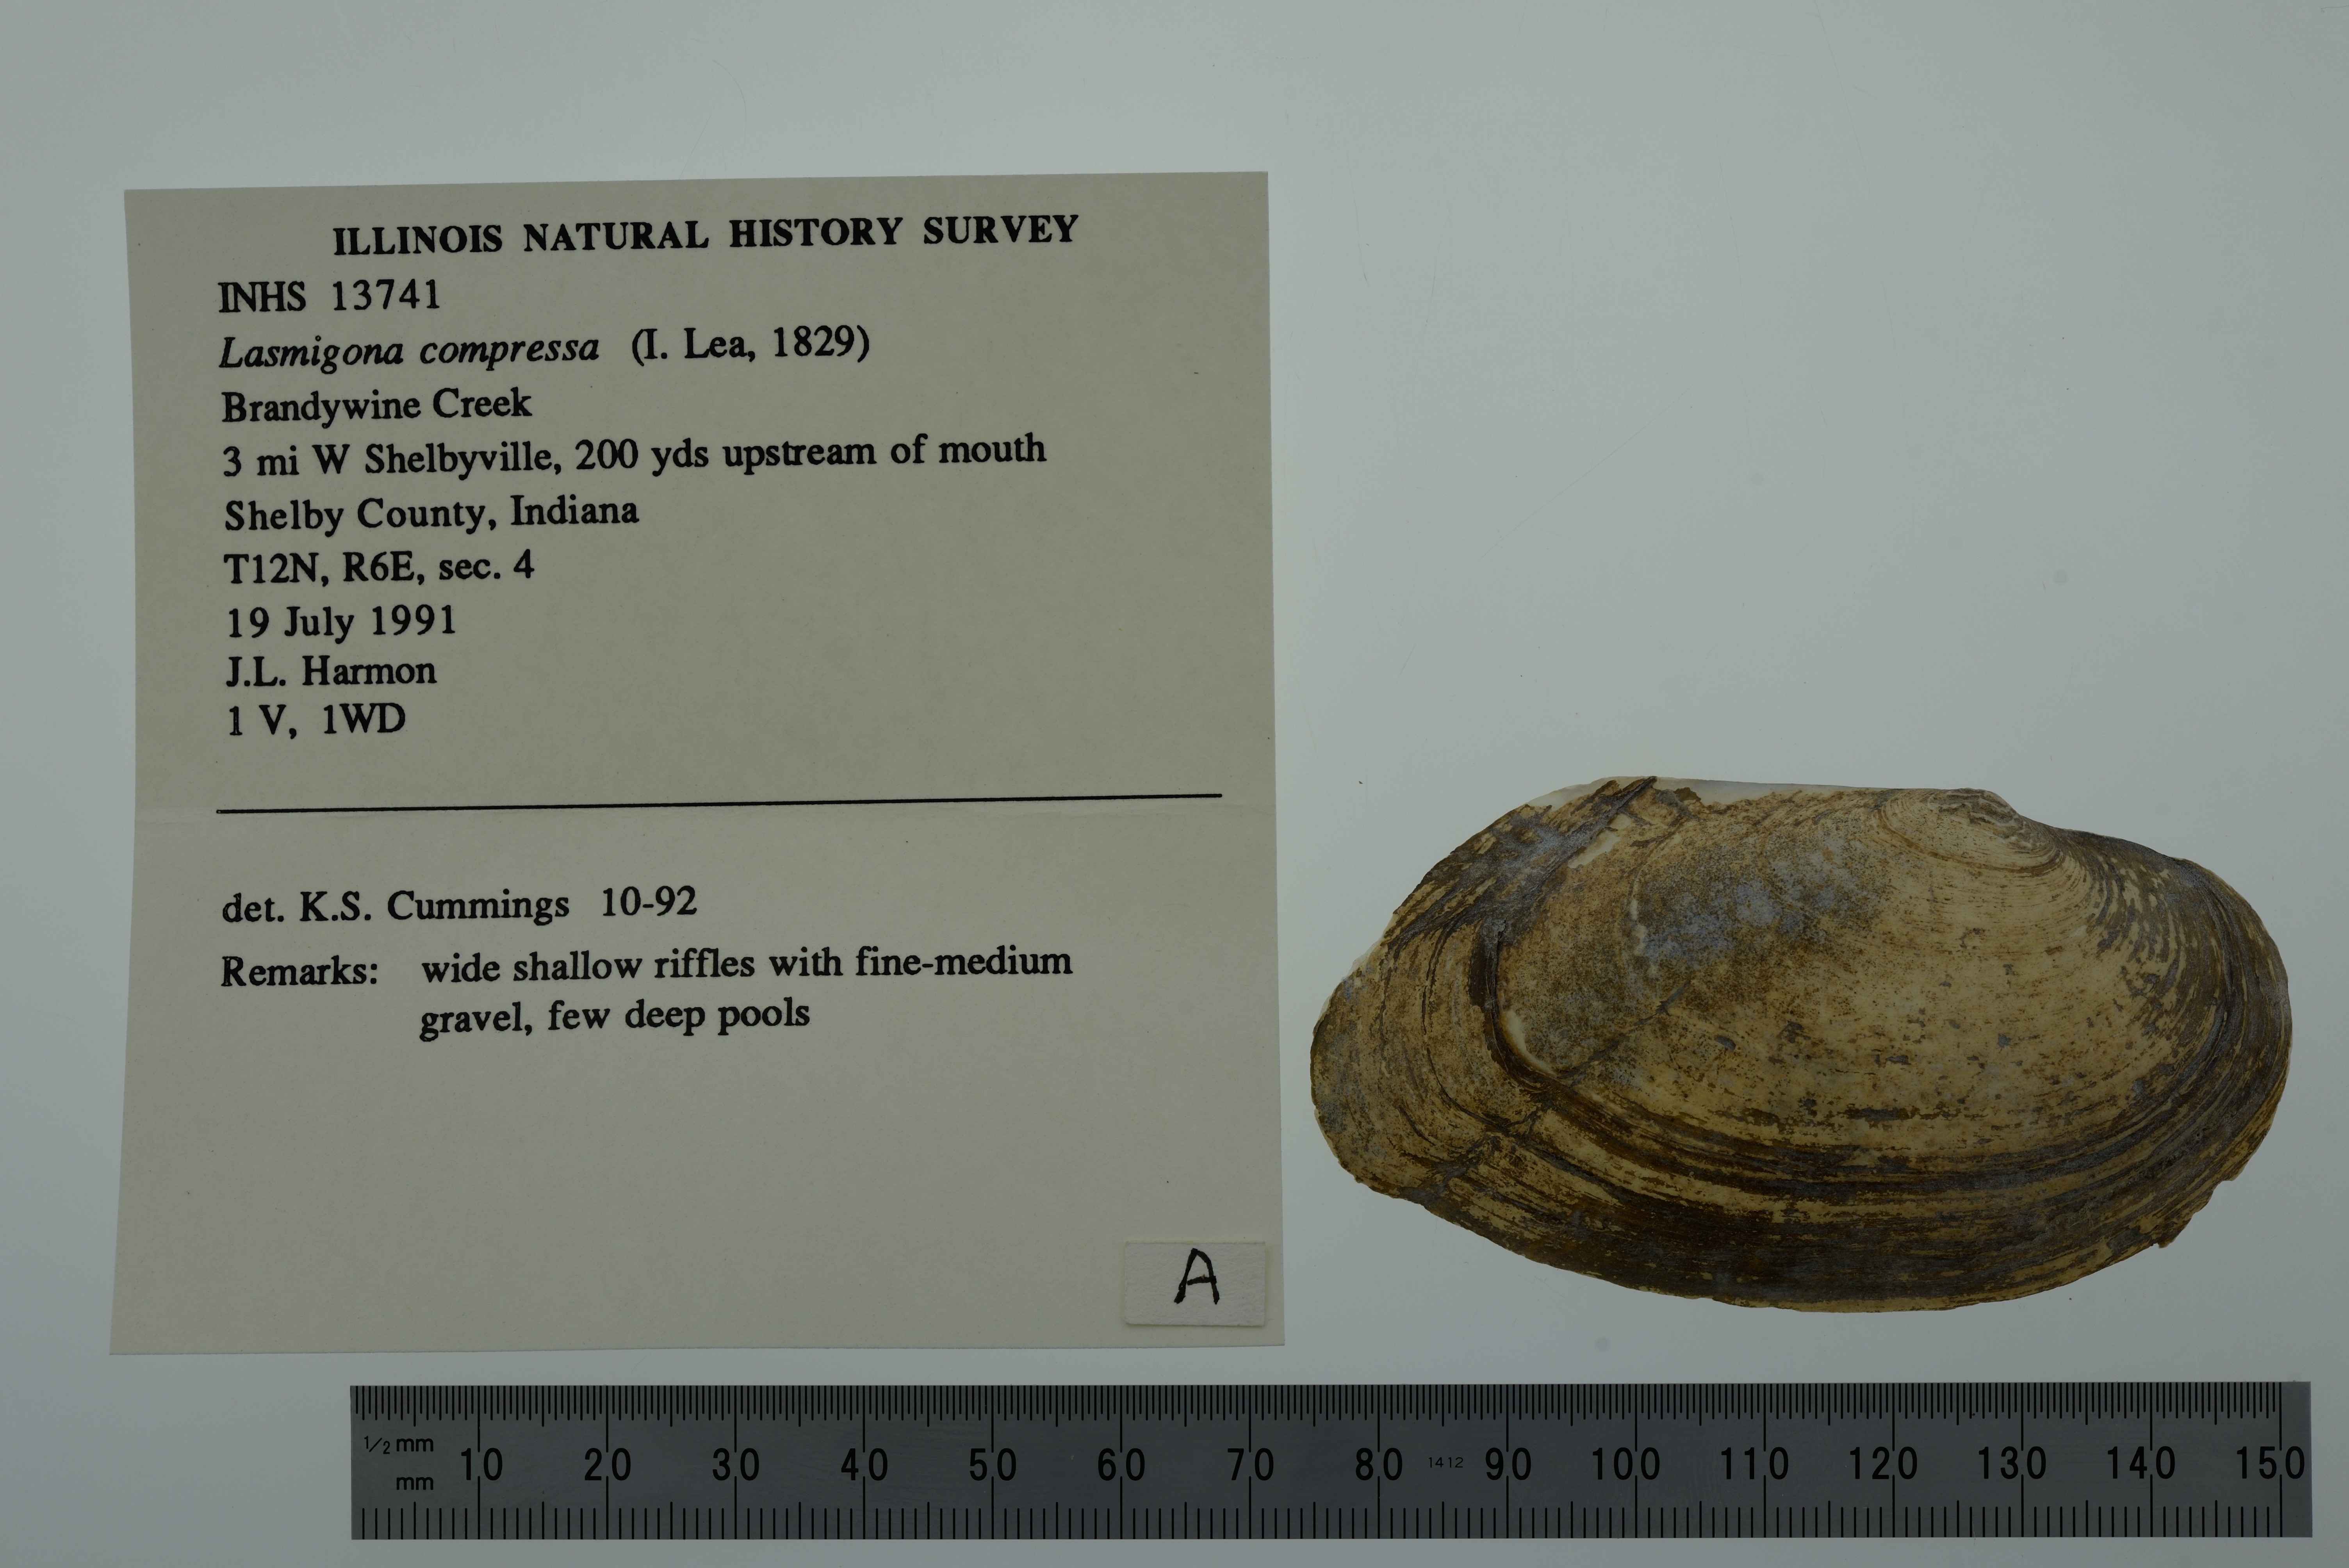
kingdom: Animalia
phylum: Mollusca
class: Bivalvia
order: Unionida
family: Unionidae
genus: Lasmigona
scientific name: Lasmigona compressa
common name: Creek heelsplitter
